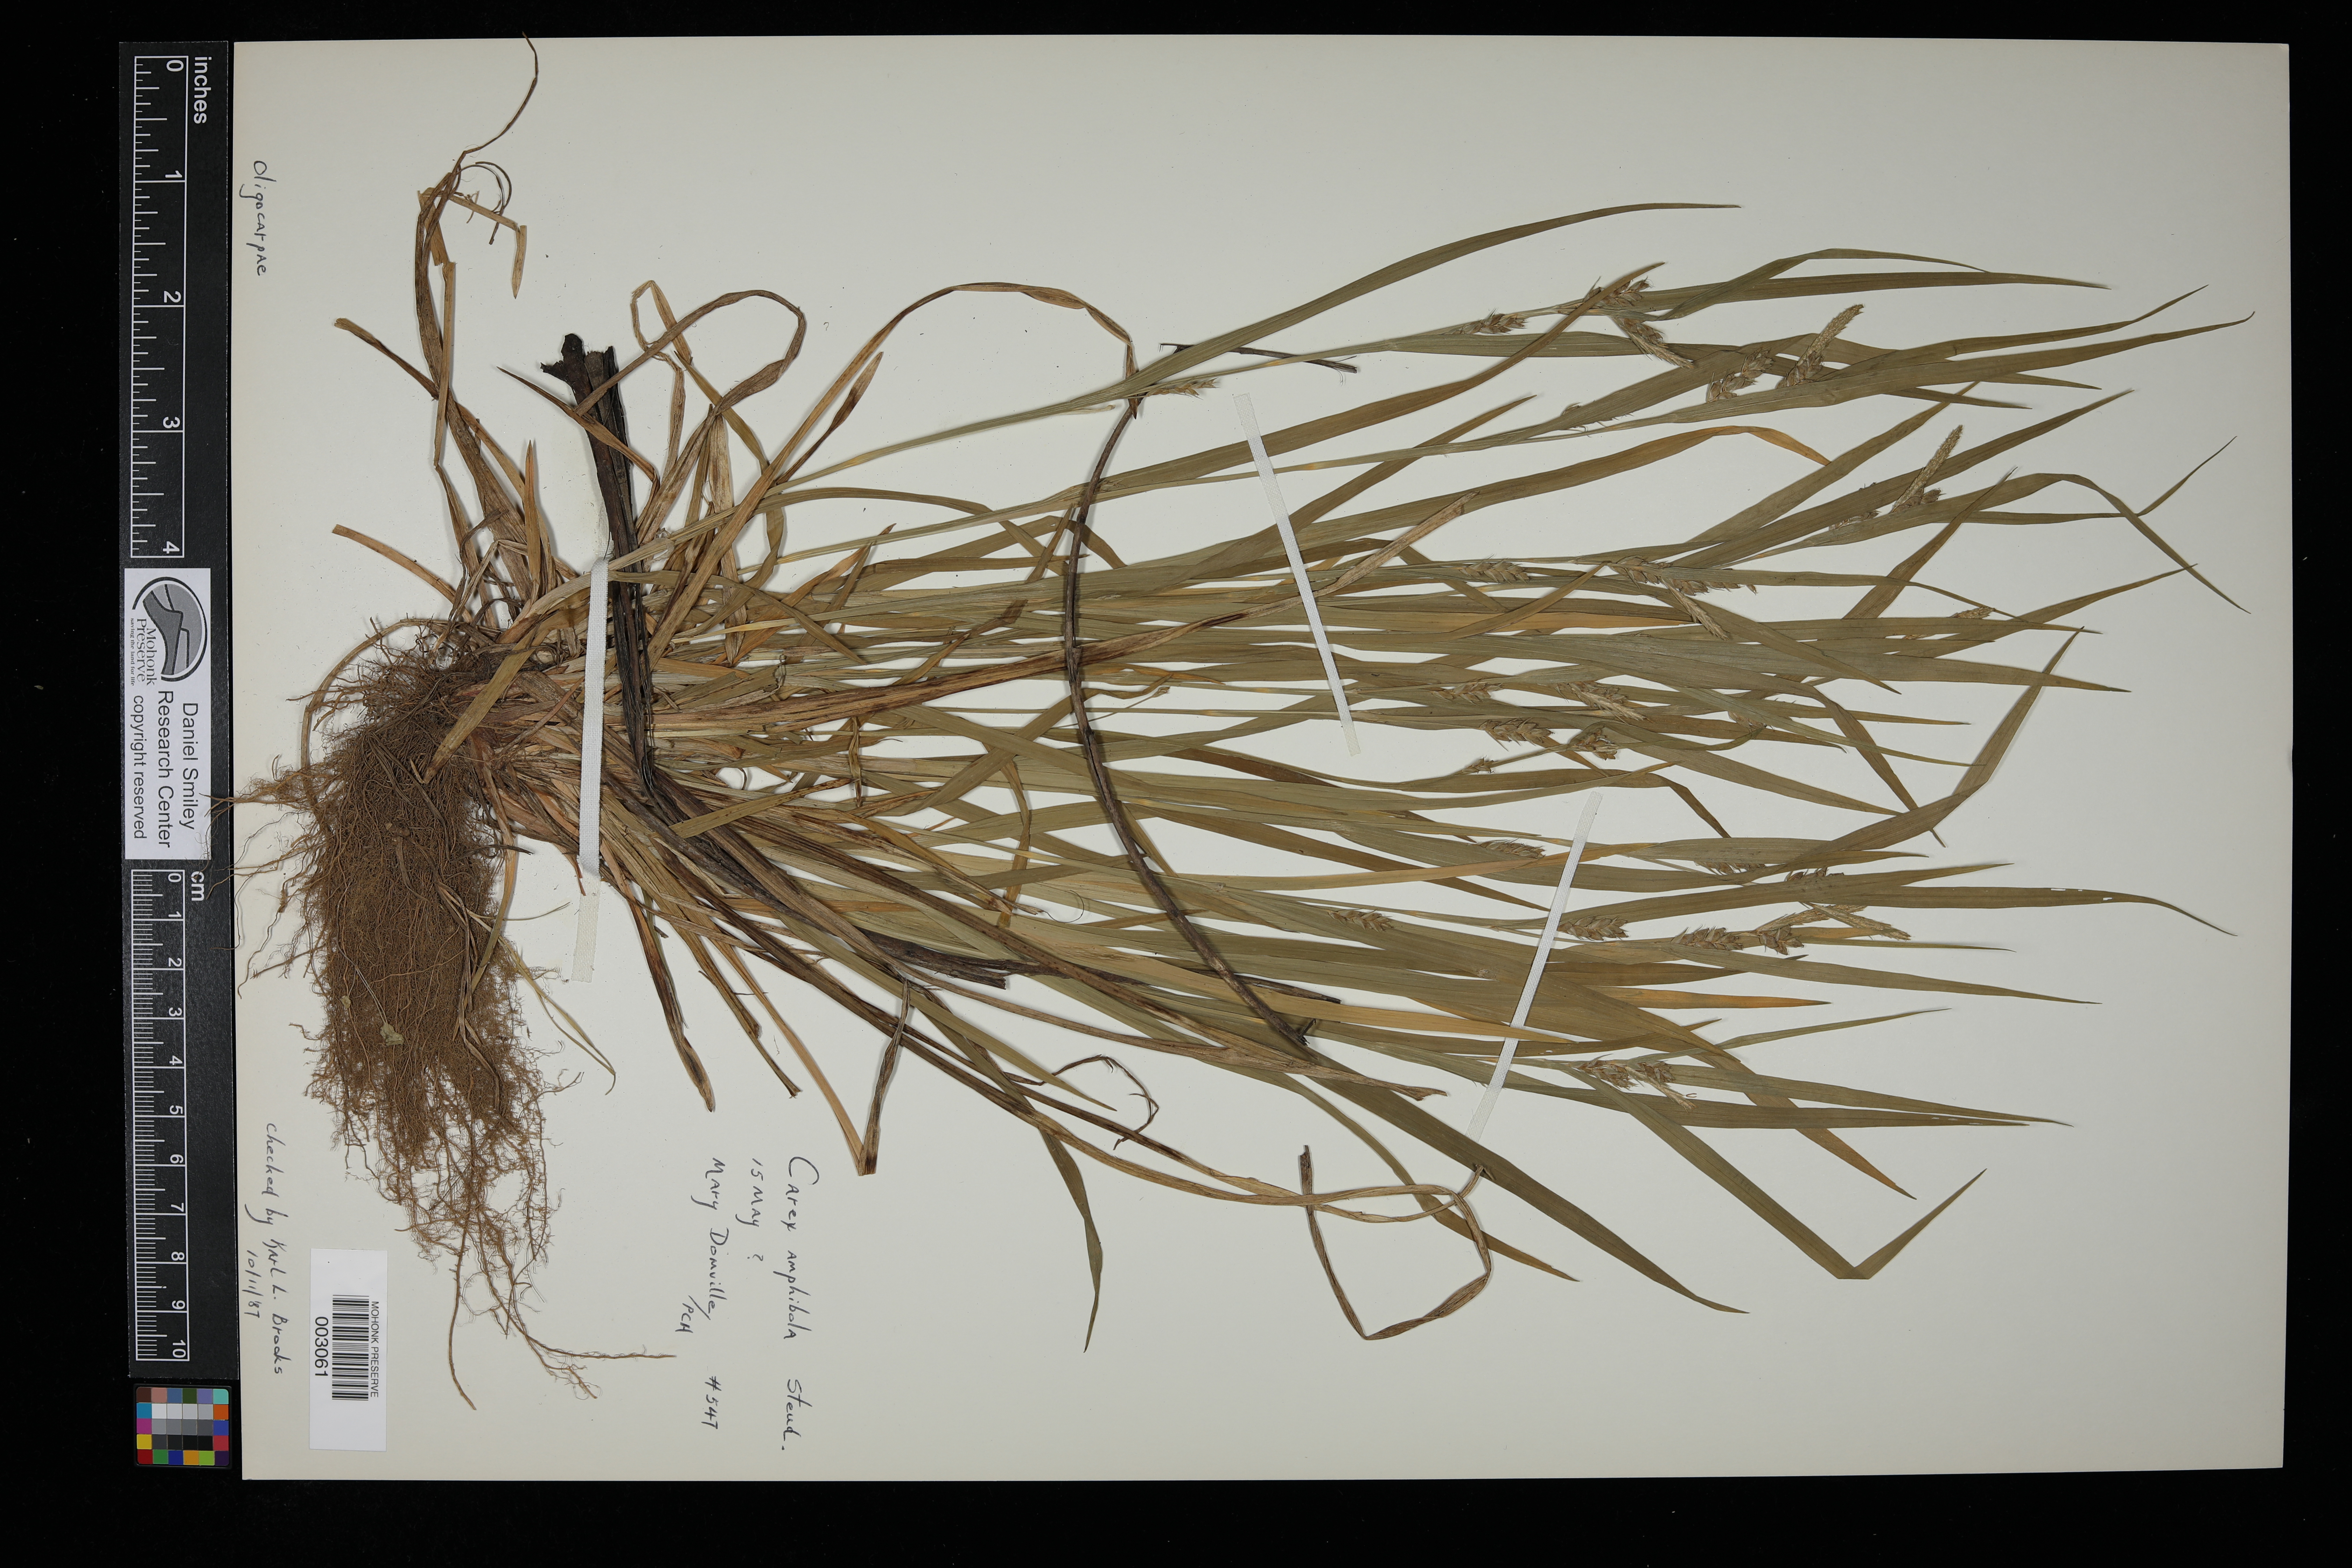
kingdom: Plantae
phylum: Tracheophyta
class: Liliopsida
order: Poales
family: Cyperaceae
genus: Carex
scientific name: Carex amphibola
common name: Amphibious sedge
